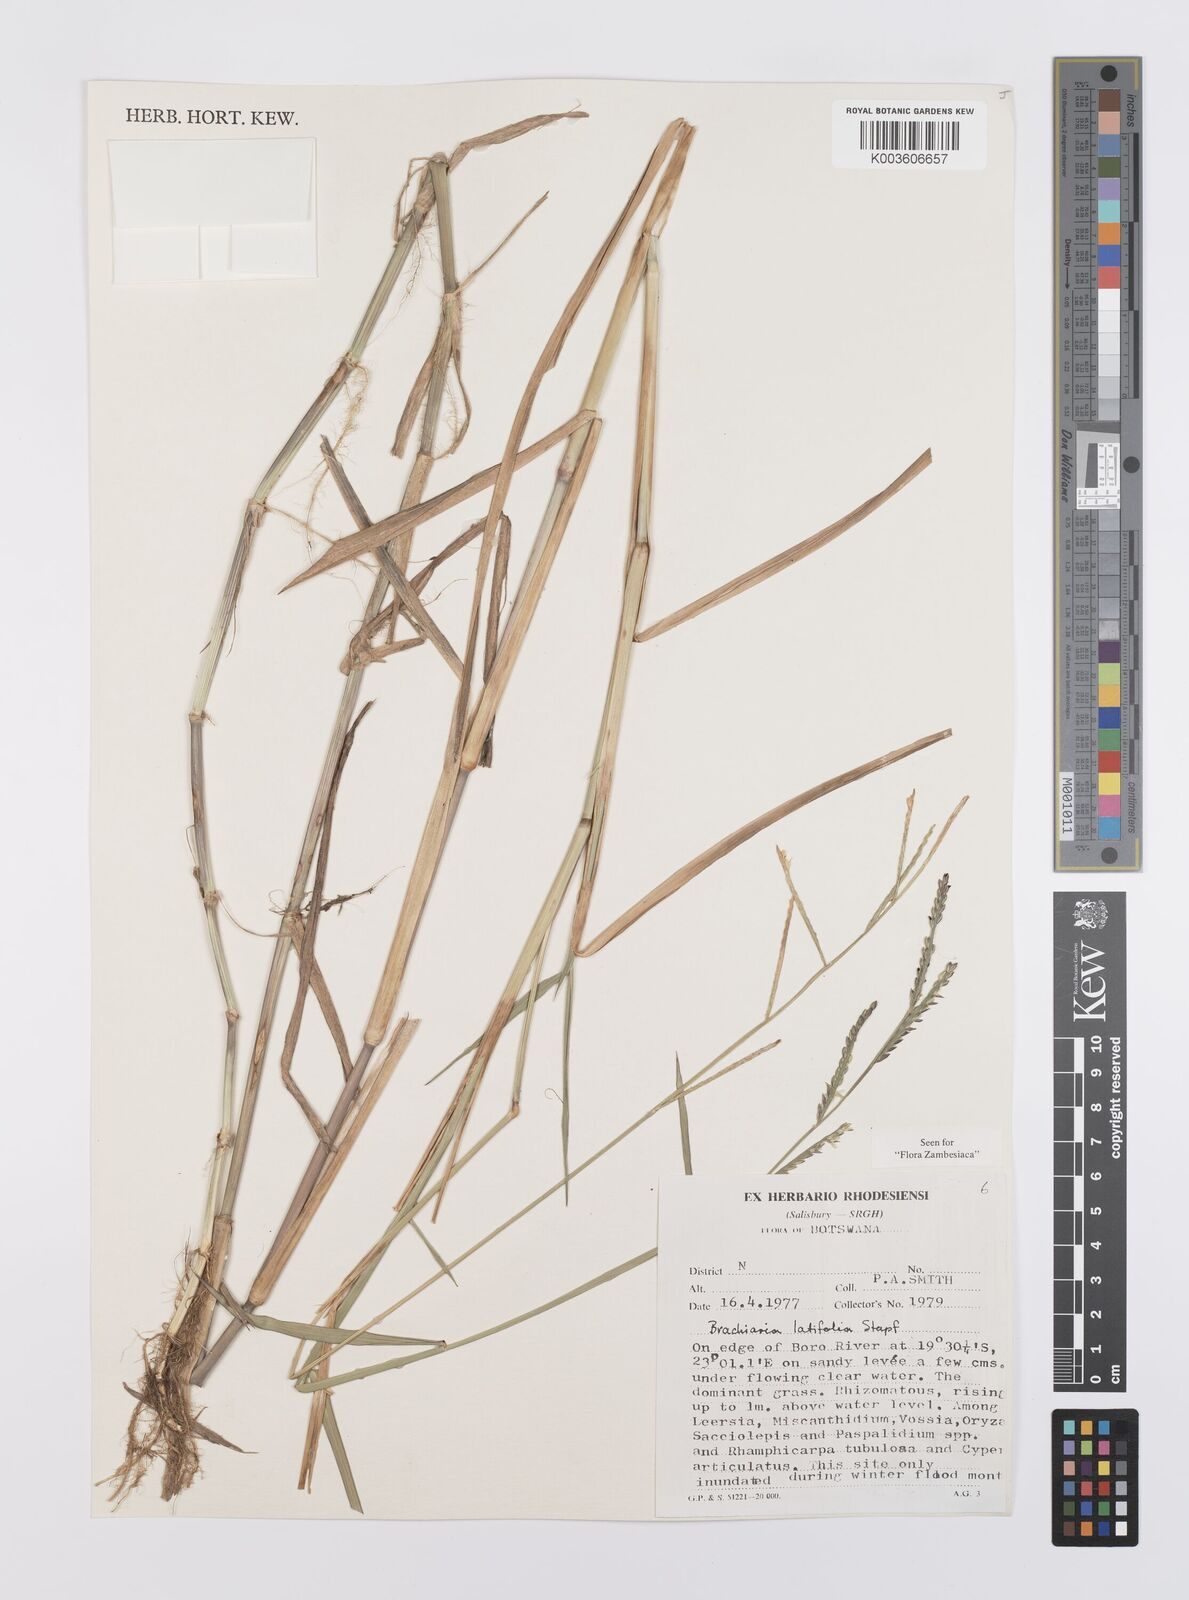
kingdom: Plantae
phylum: Tracheophyta
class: Liliopsida
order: Poales
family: Poaceae
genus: Urochloa
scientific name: Urochloa arrecta
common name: African signalgrass
